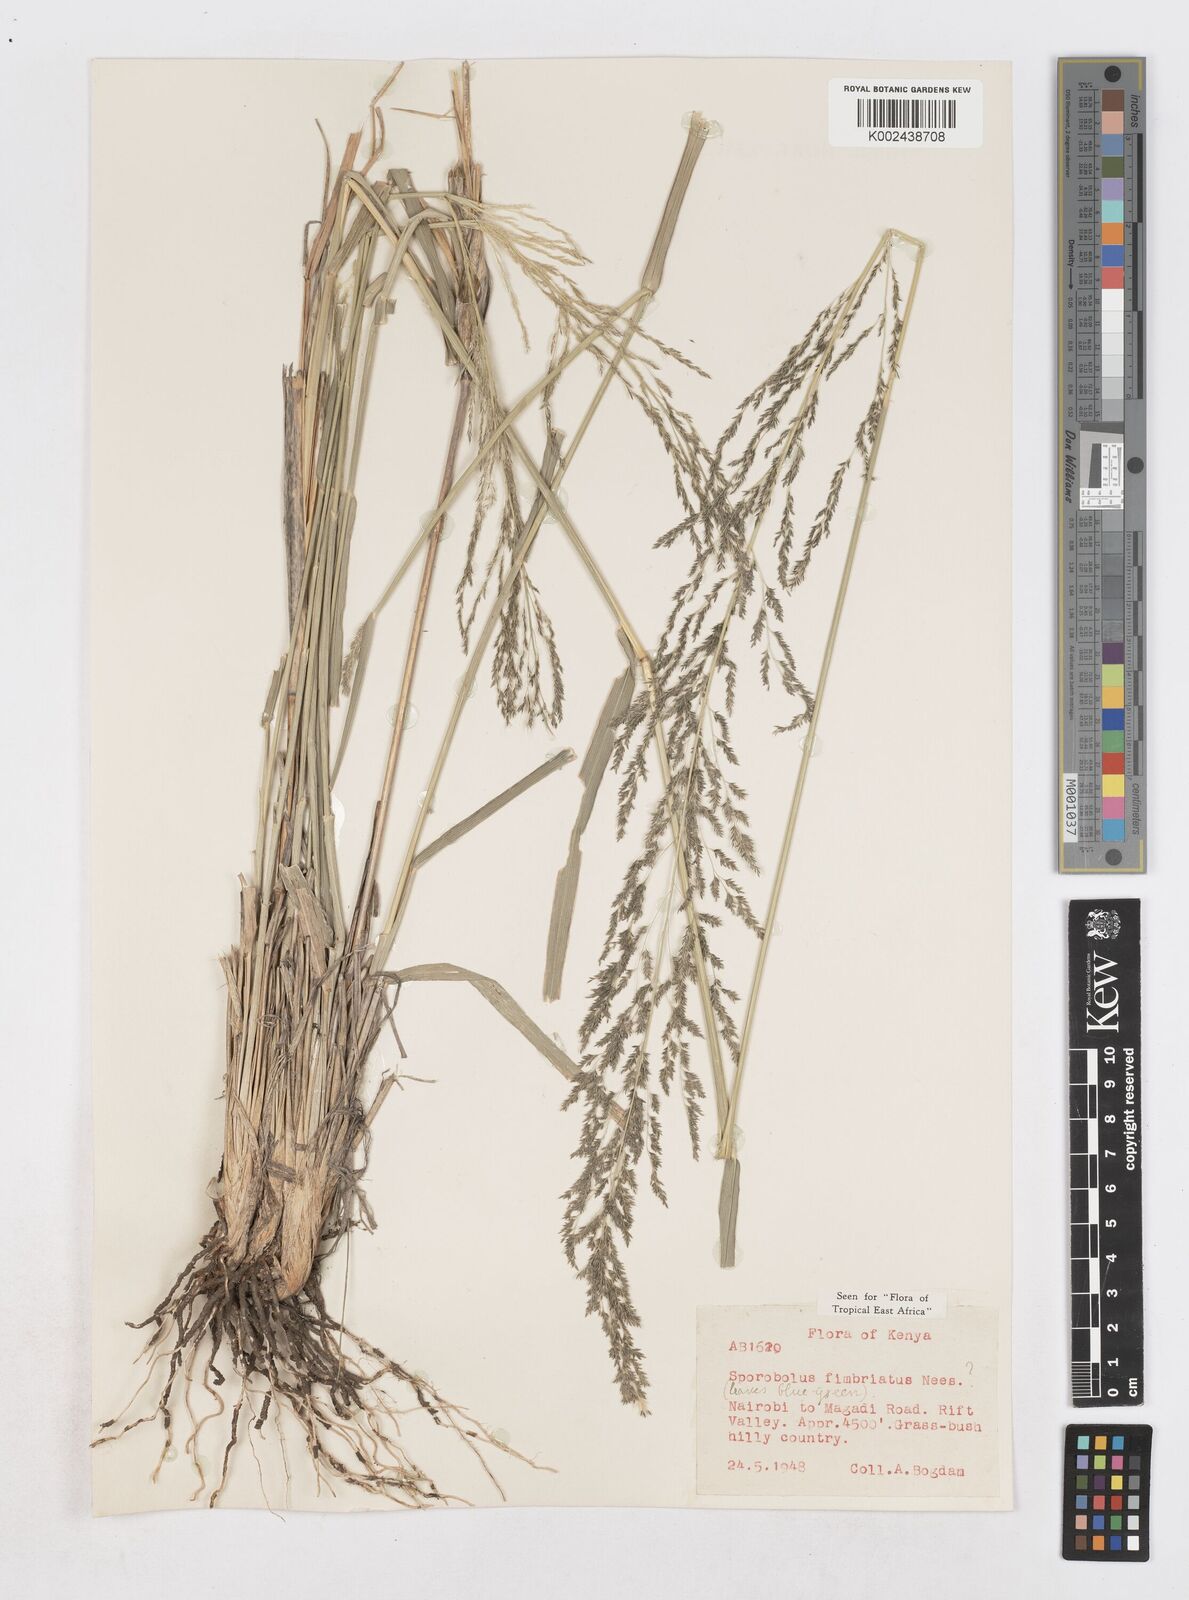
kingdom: Plantae
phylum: Tracheophyta
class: Liliopsida
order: Poales
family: Poaceae
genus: Sporobolus
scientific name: Sporobolus fimbriatus
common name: Fringed dropseed
